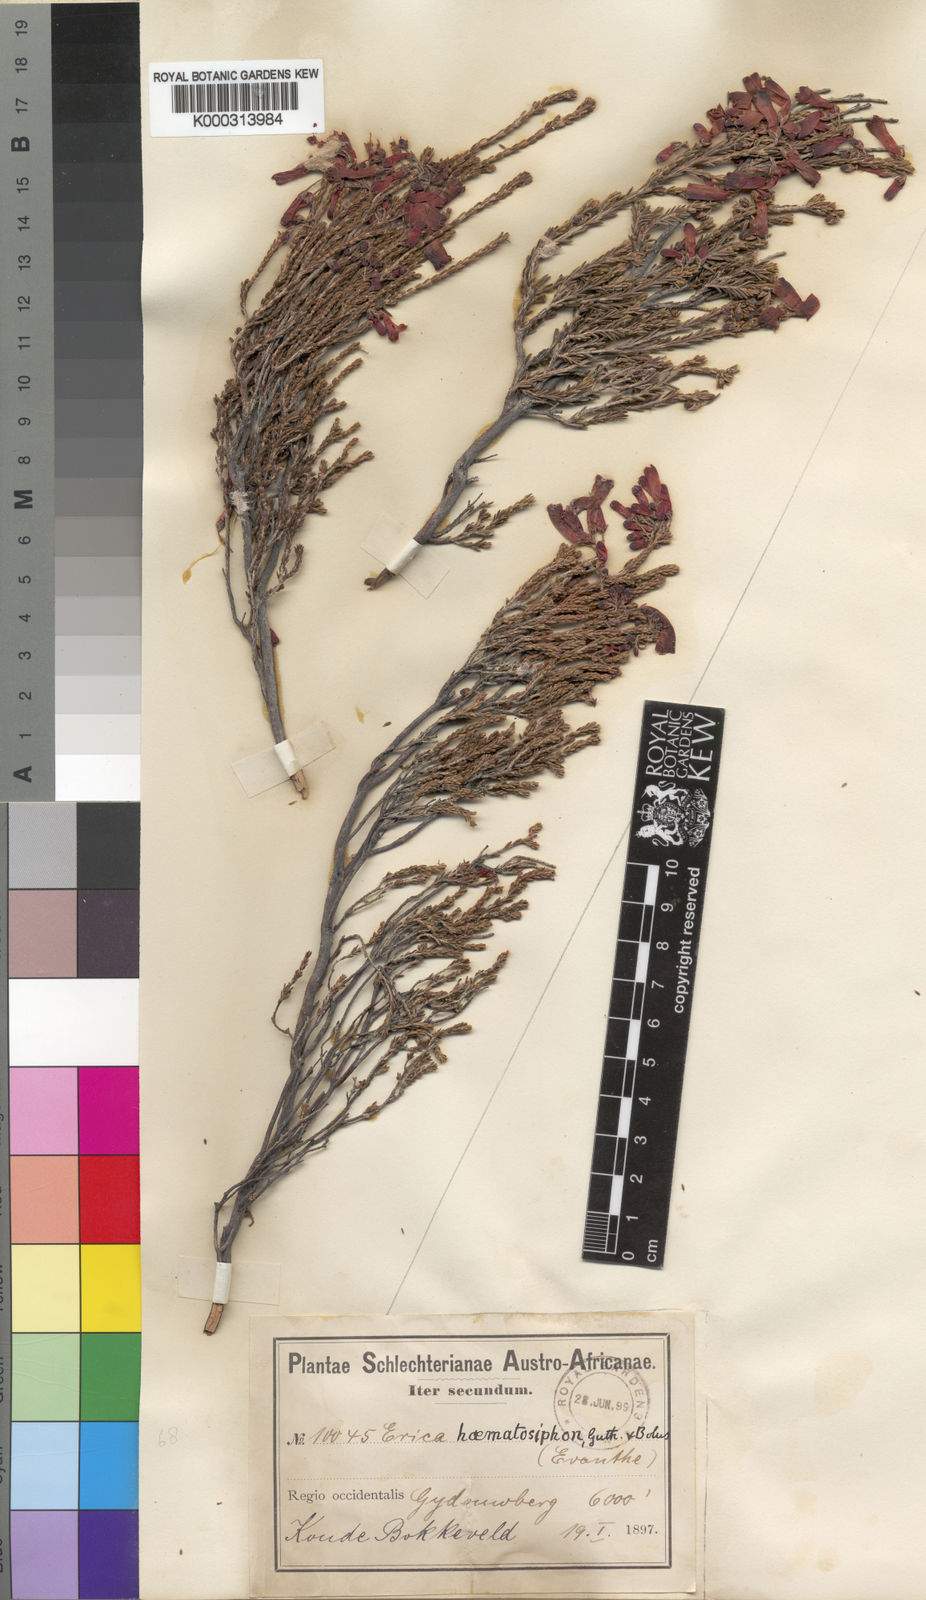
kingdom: Plantae
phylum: Tracheophyta
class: Magnoliopsida
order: Ericales
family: Ericaceae
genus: Erica
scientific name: Erica haematosiphon
